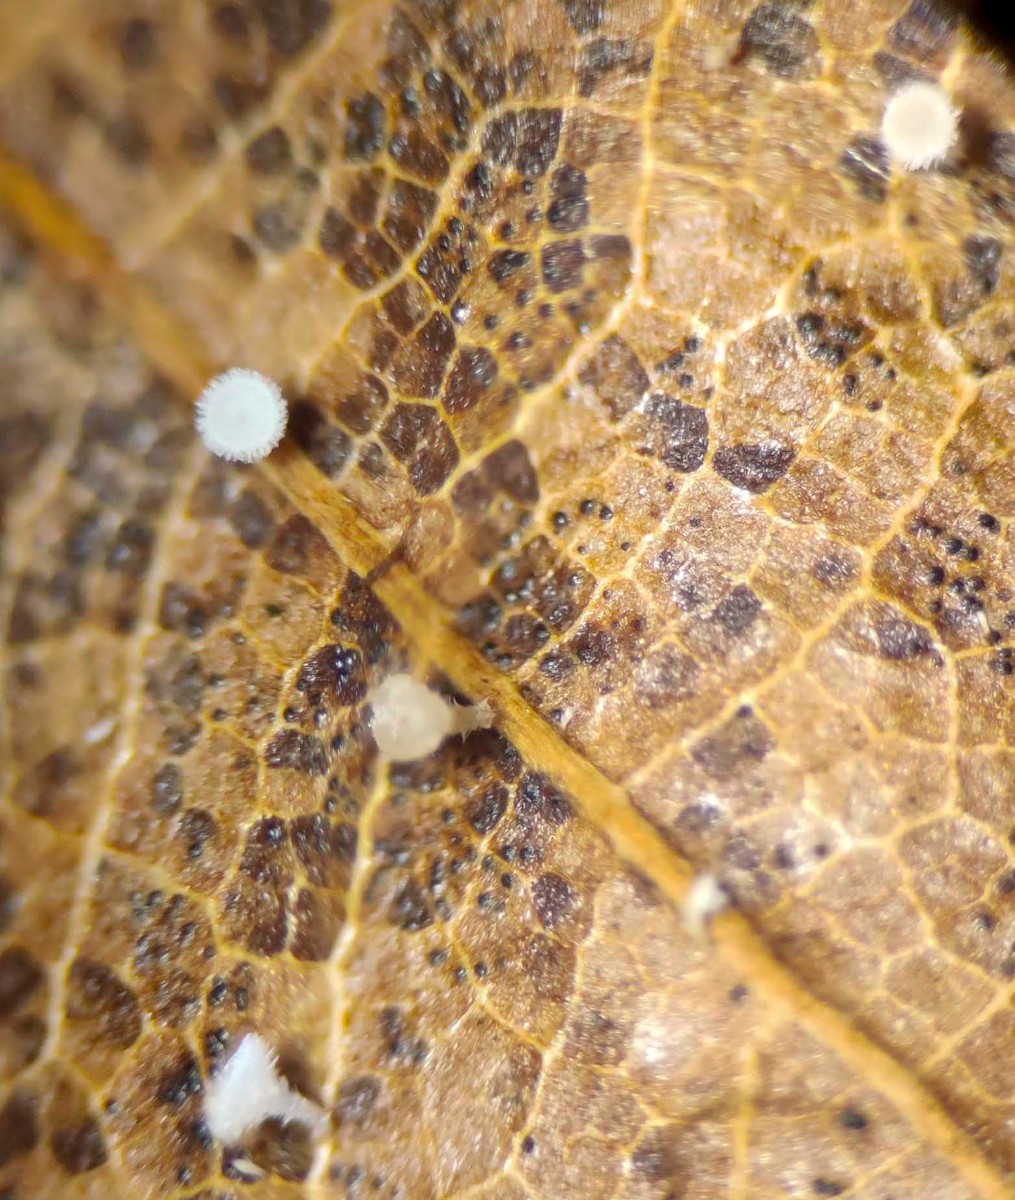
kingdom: Fungi
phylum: Ascomycota
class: Leotiomycetes
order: Helotiales
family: Lachnaceae
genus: Lachnum
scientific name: Lachnum rhytismatis
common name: blad-frynseskive
